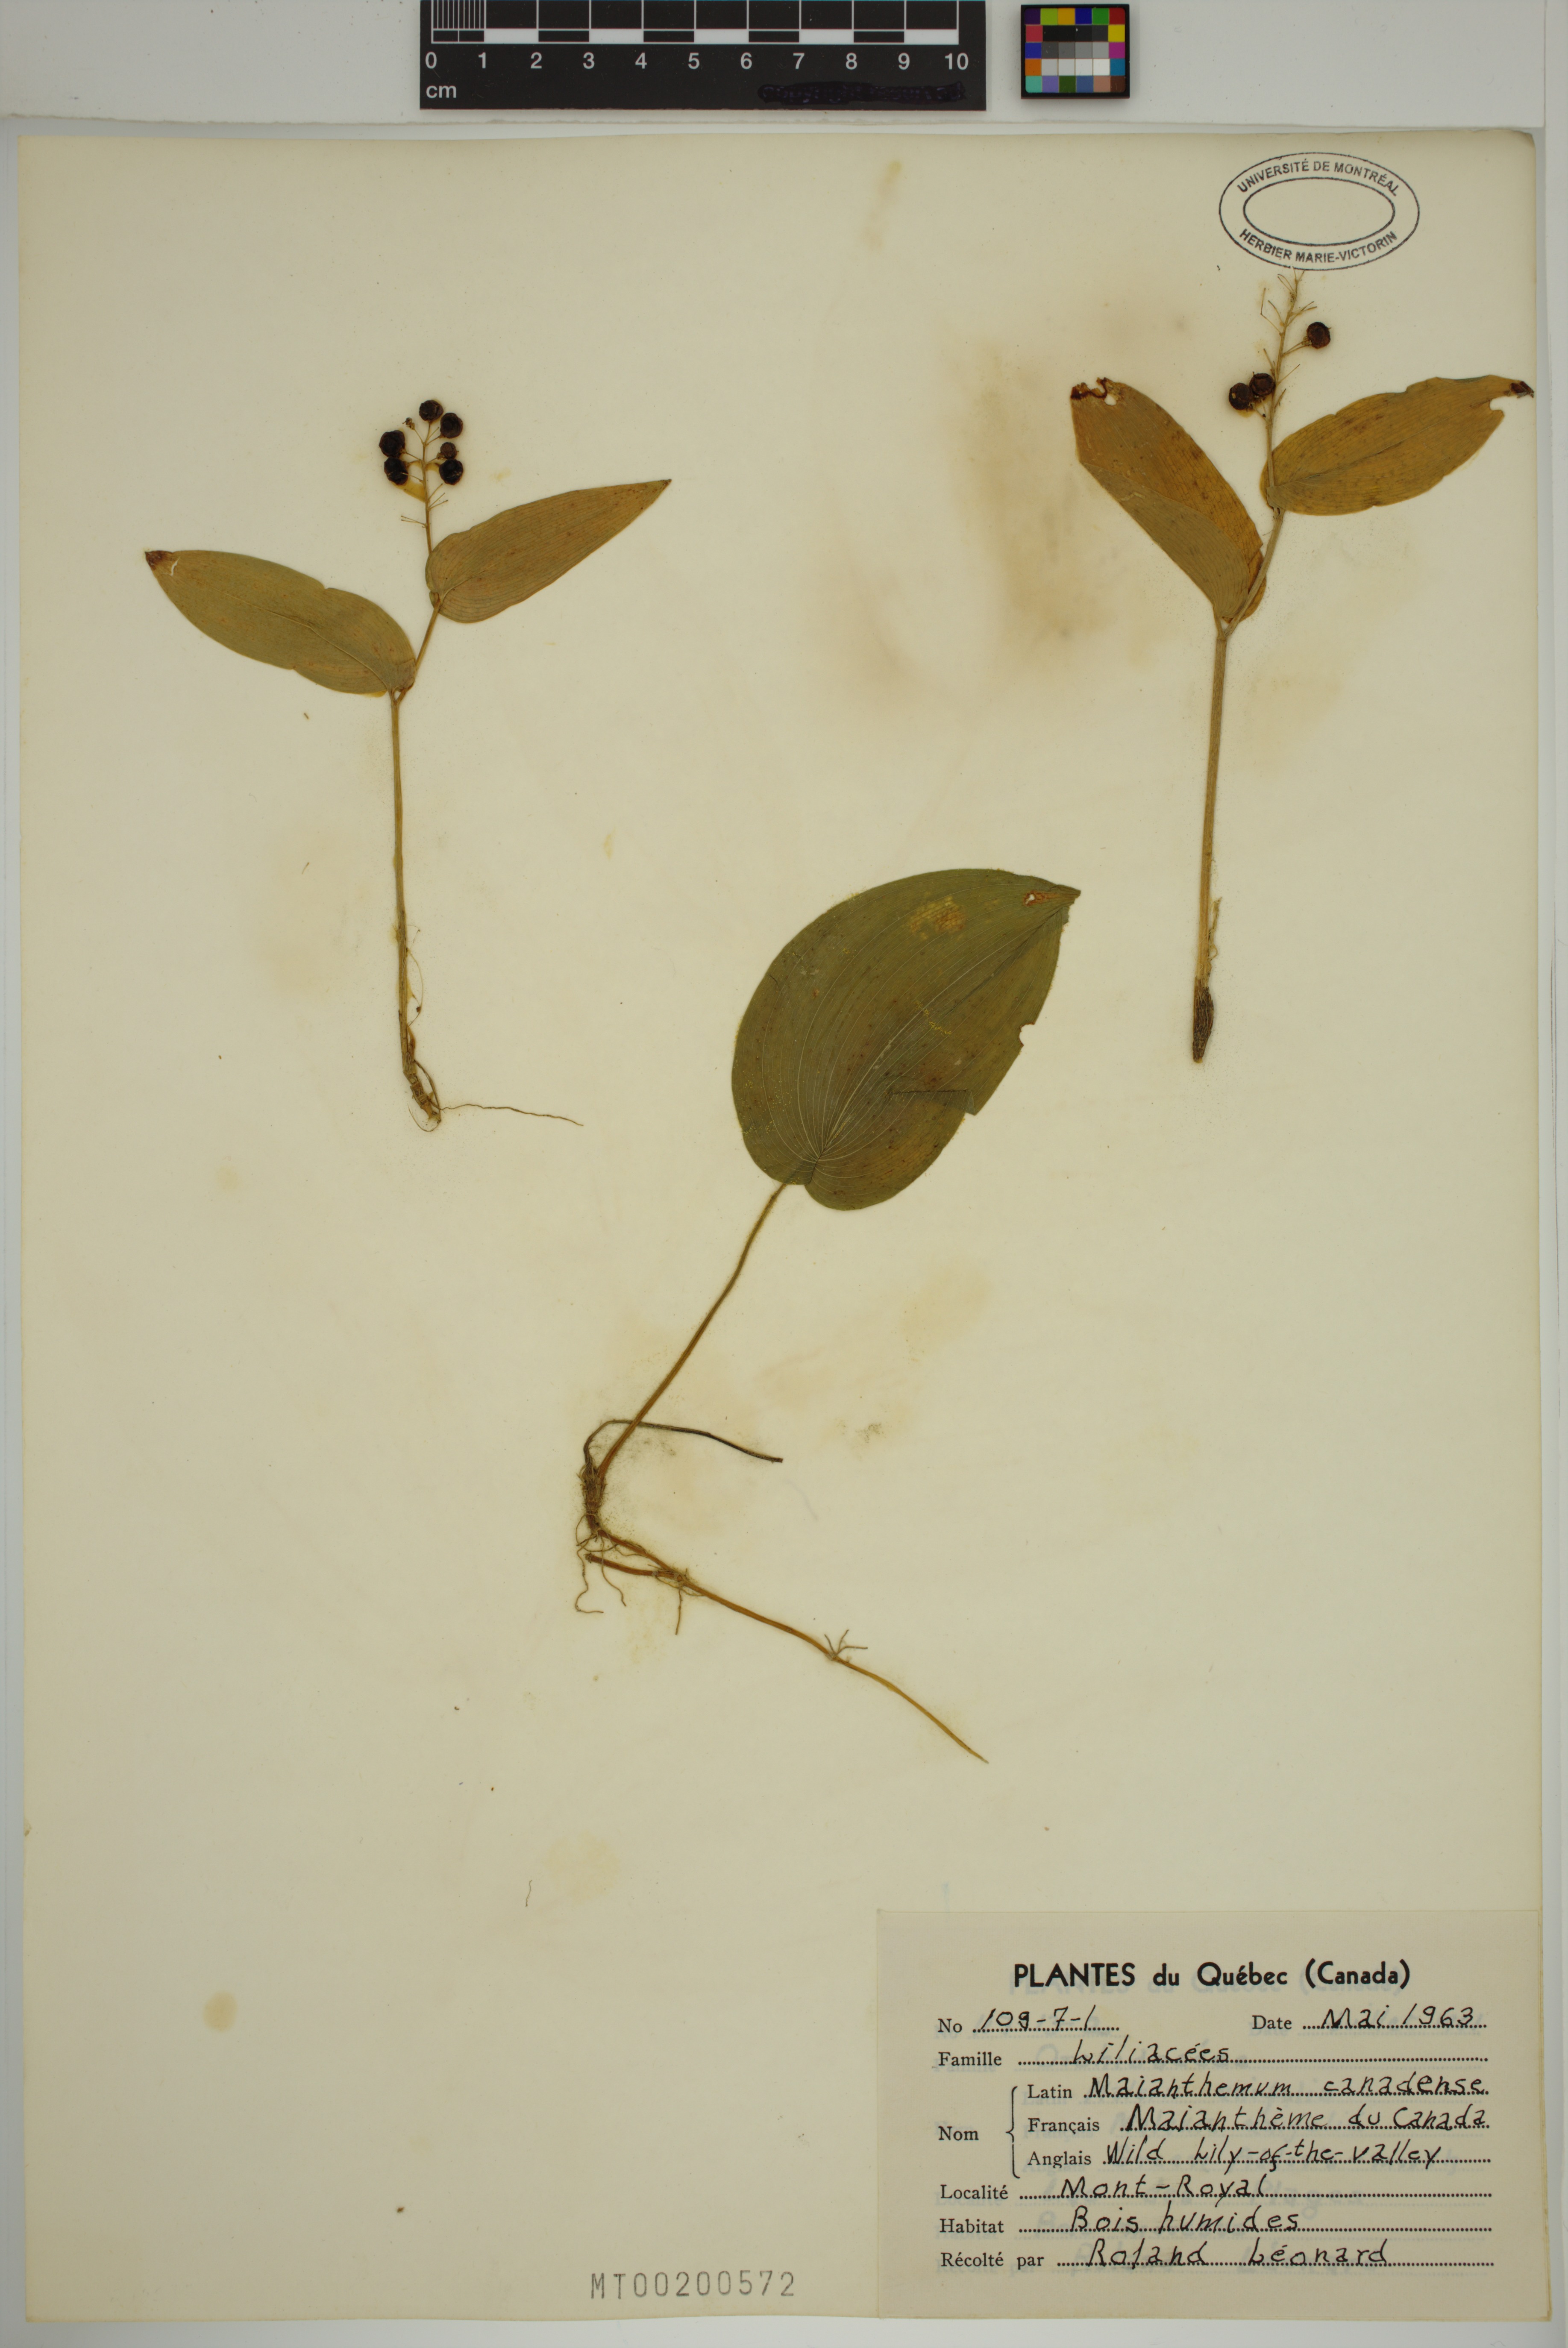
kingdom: Plantae
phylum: Tracheophyta
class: Liliopsida
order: Asparagales
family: Asparagaceae
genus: Maianthemum
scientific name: Maianthemum canadense
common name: False lily-of-the-valley
